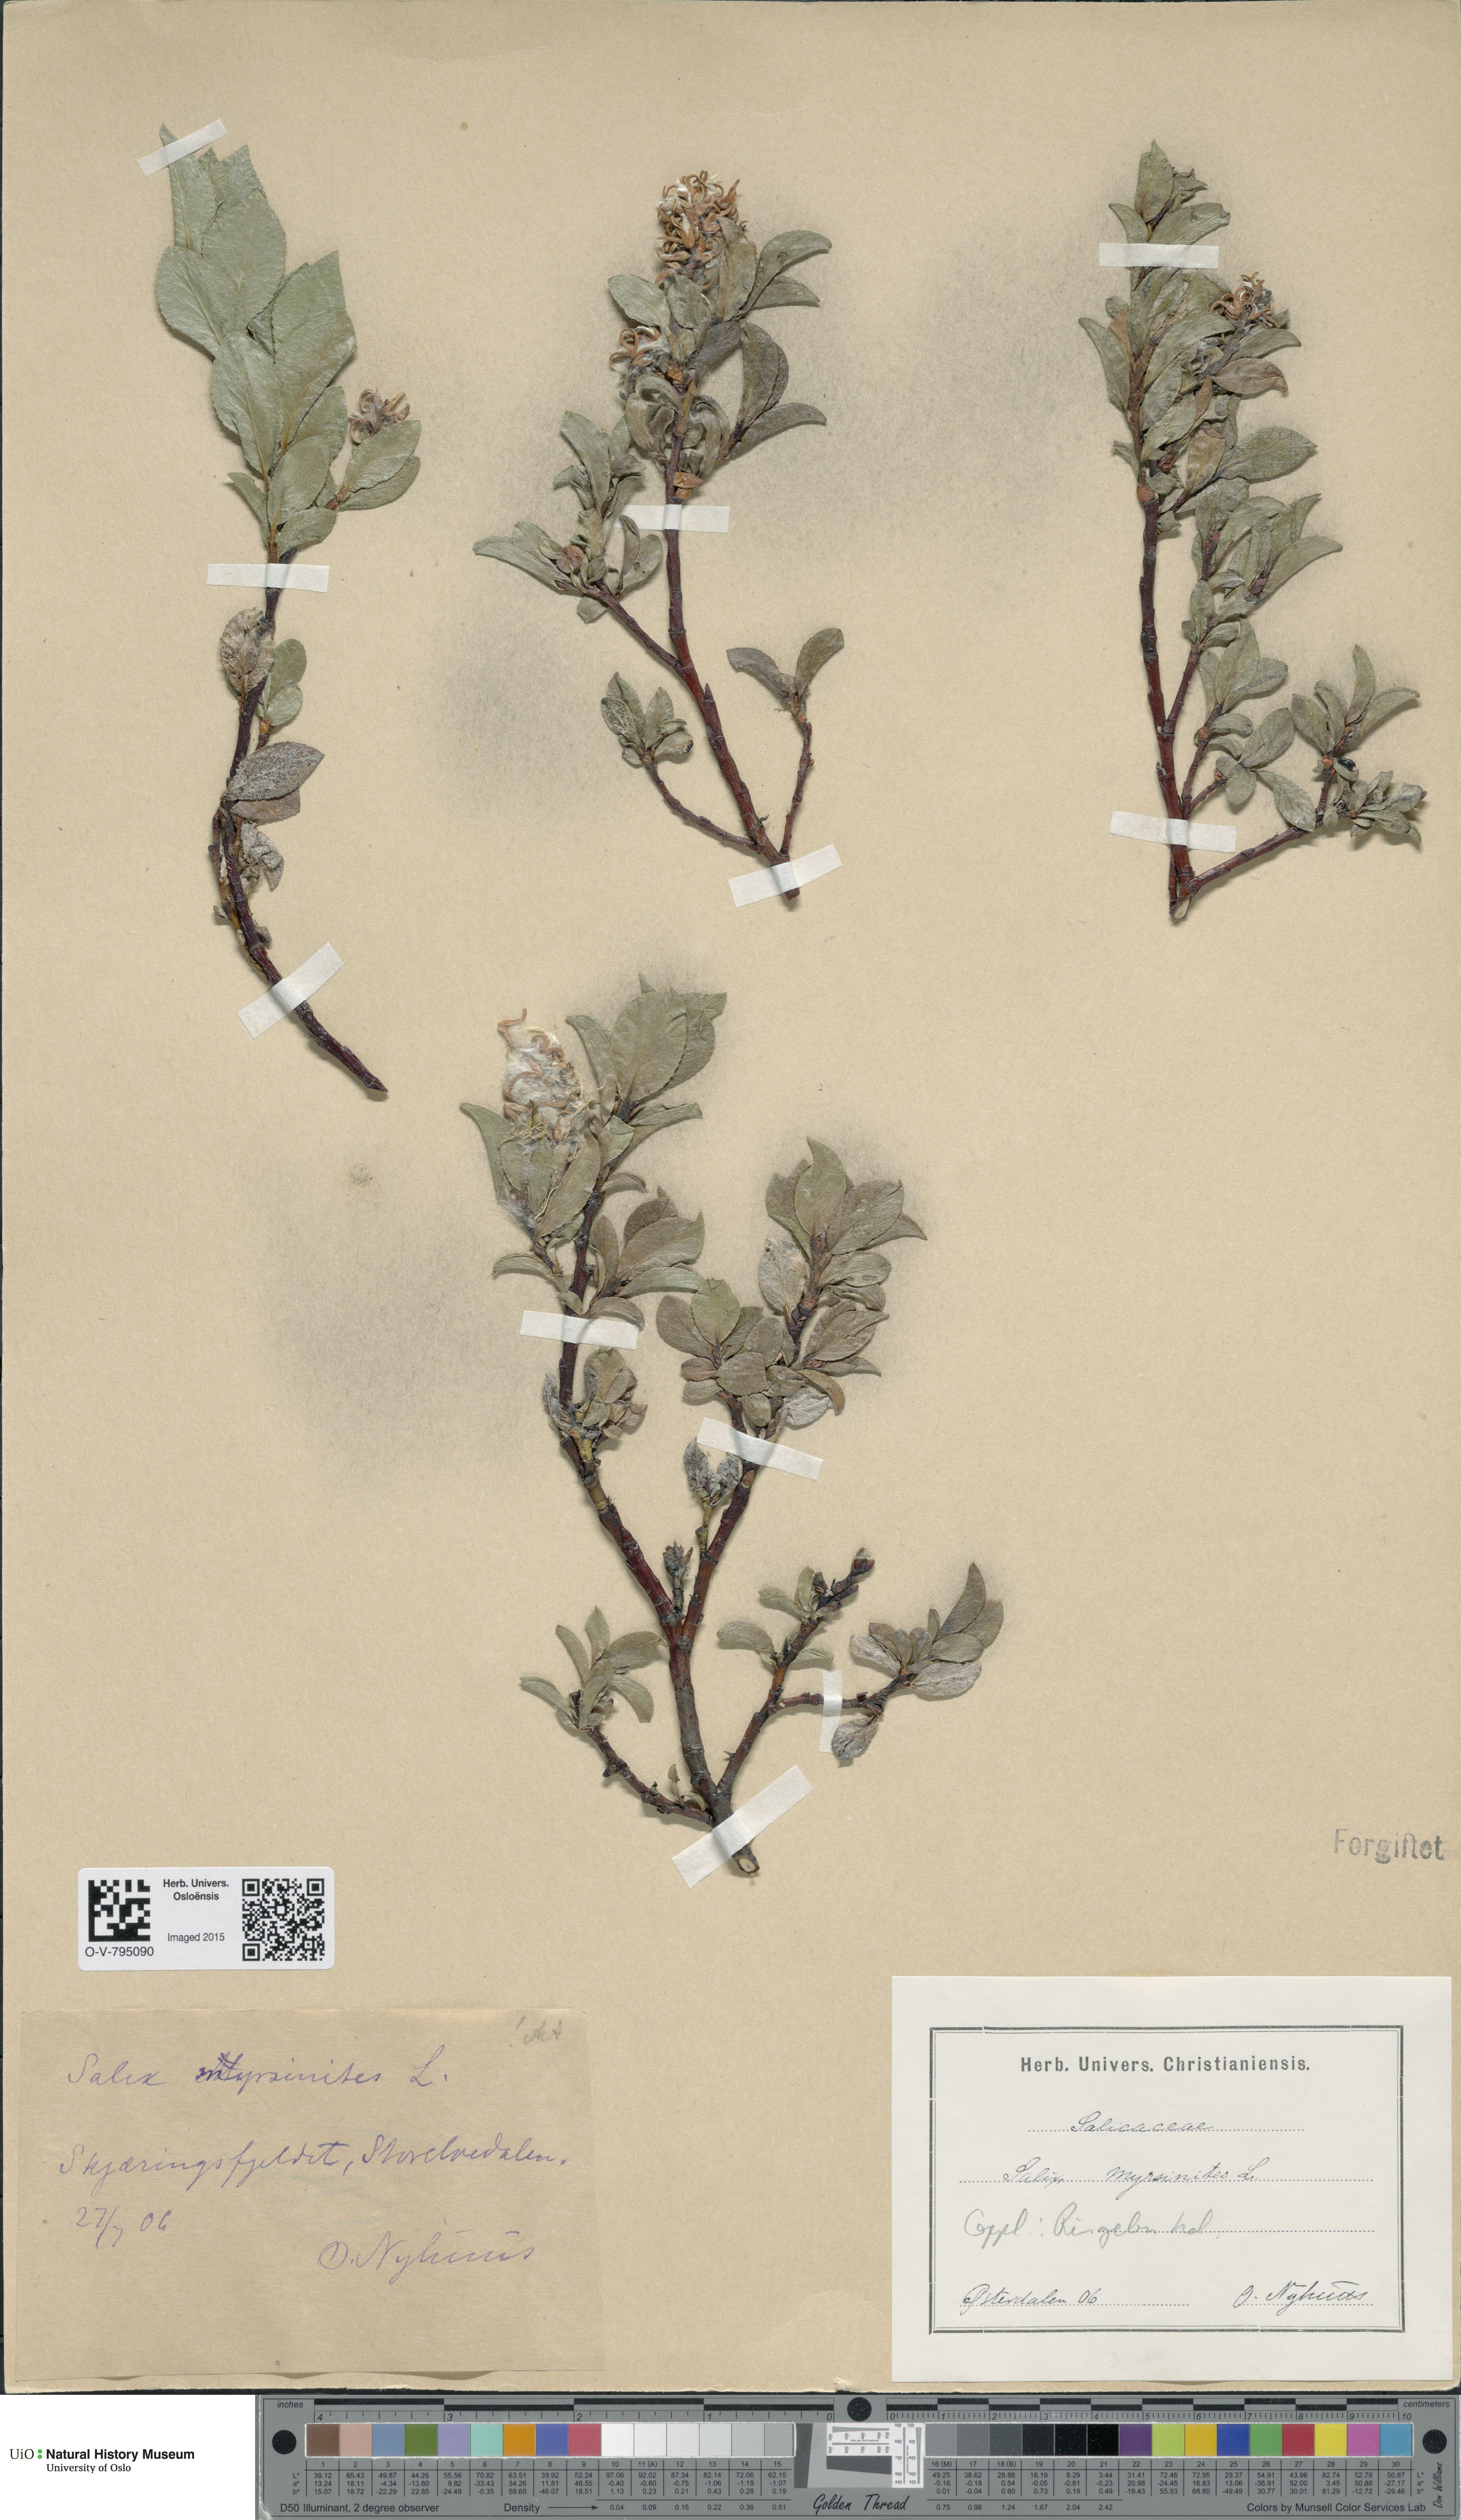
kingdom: Plantae
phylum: Tracheophyta
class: Magnoliopsida
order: Malpighiales
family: Salicaceae
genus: Salix
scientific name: Salix myrsinites
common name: Myrtle willow
